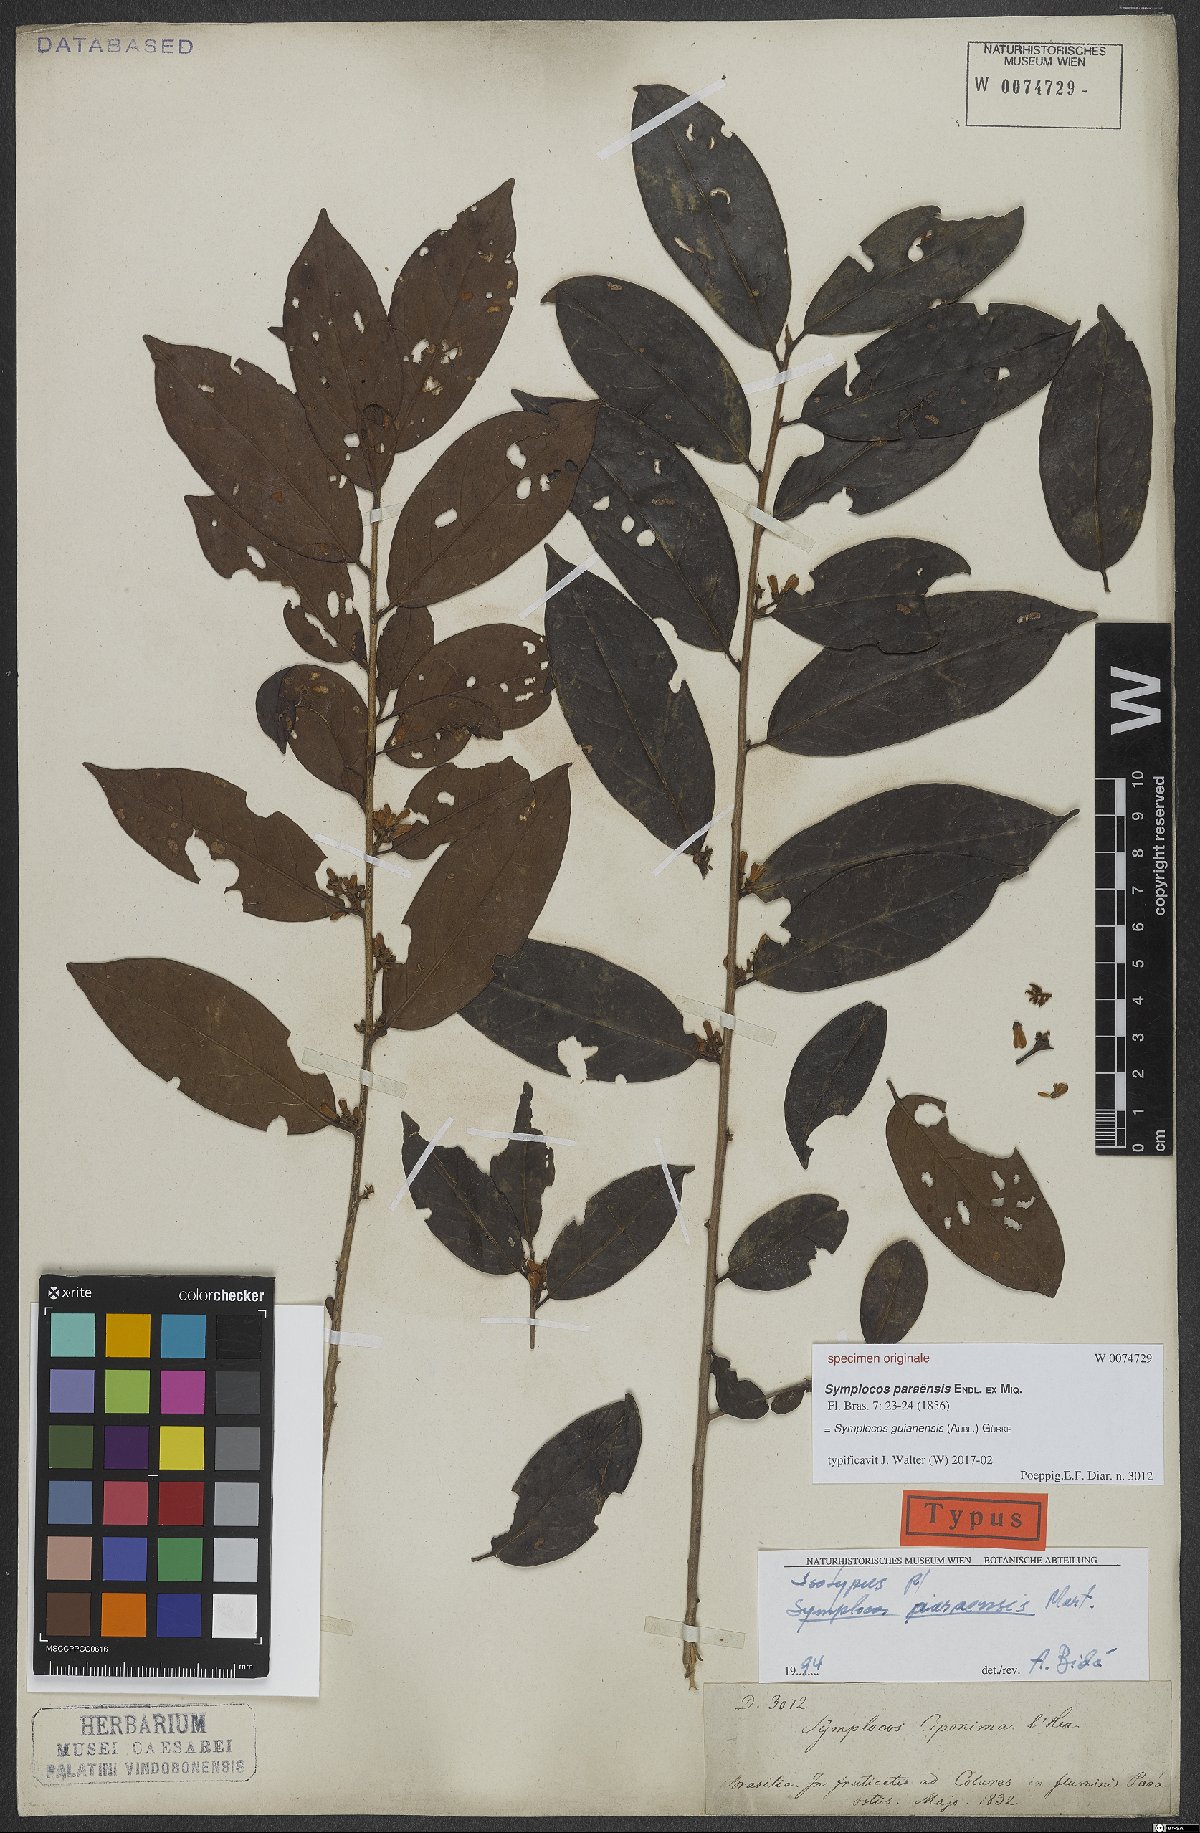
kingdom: Plantae
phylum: Tracheophyta
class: Magnoliopsida
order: Ericales
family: Symplocaceae
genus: Symplocos
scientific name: Symplocos guianensis
